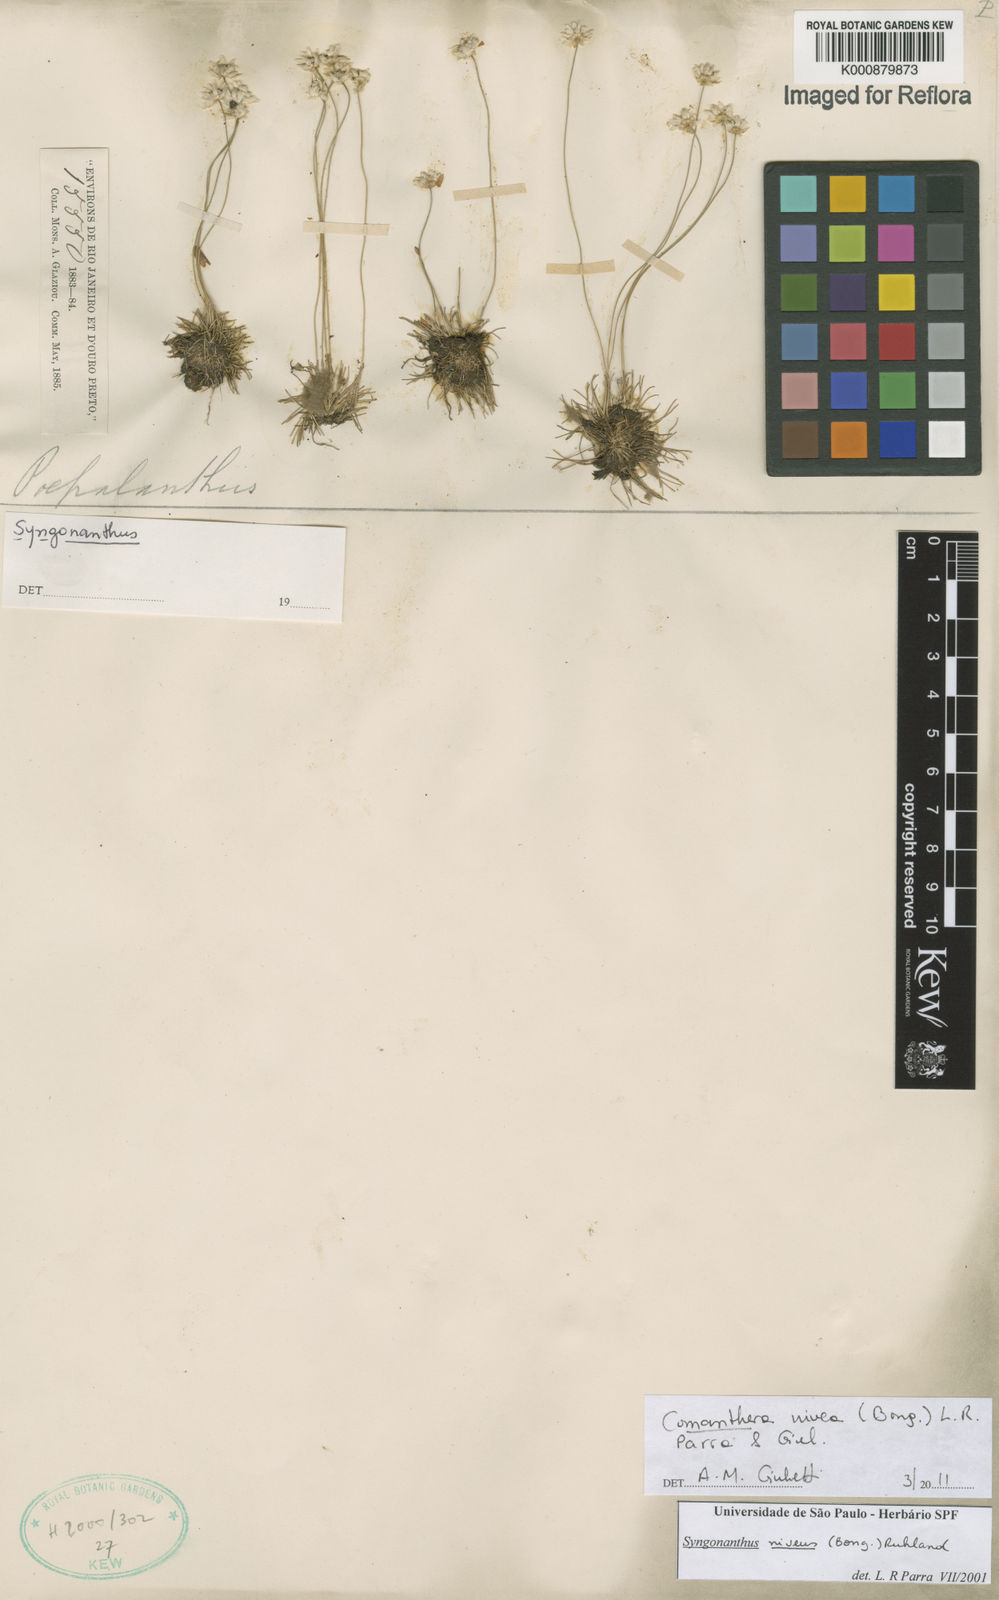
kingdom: Plantae
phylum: Tracheophyta
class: Liliopsida
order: Poales
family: Eriocaulaceae
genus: Comanthera
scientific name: Comanthera nivea
